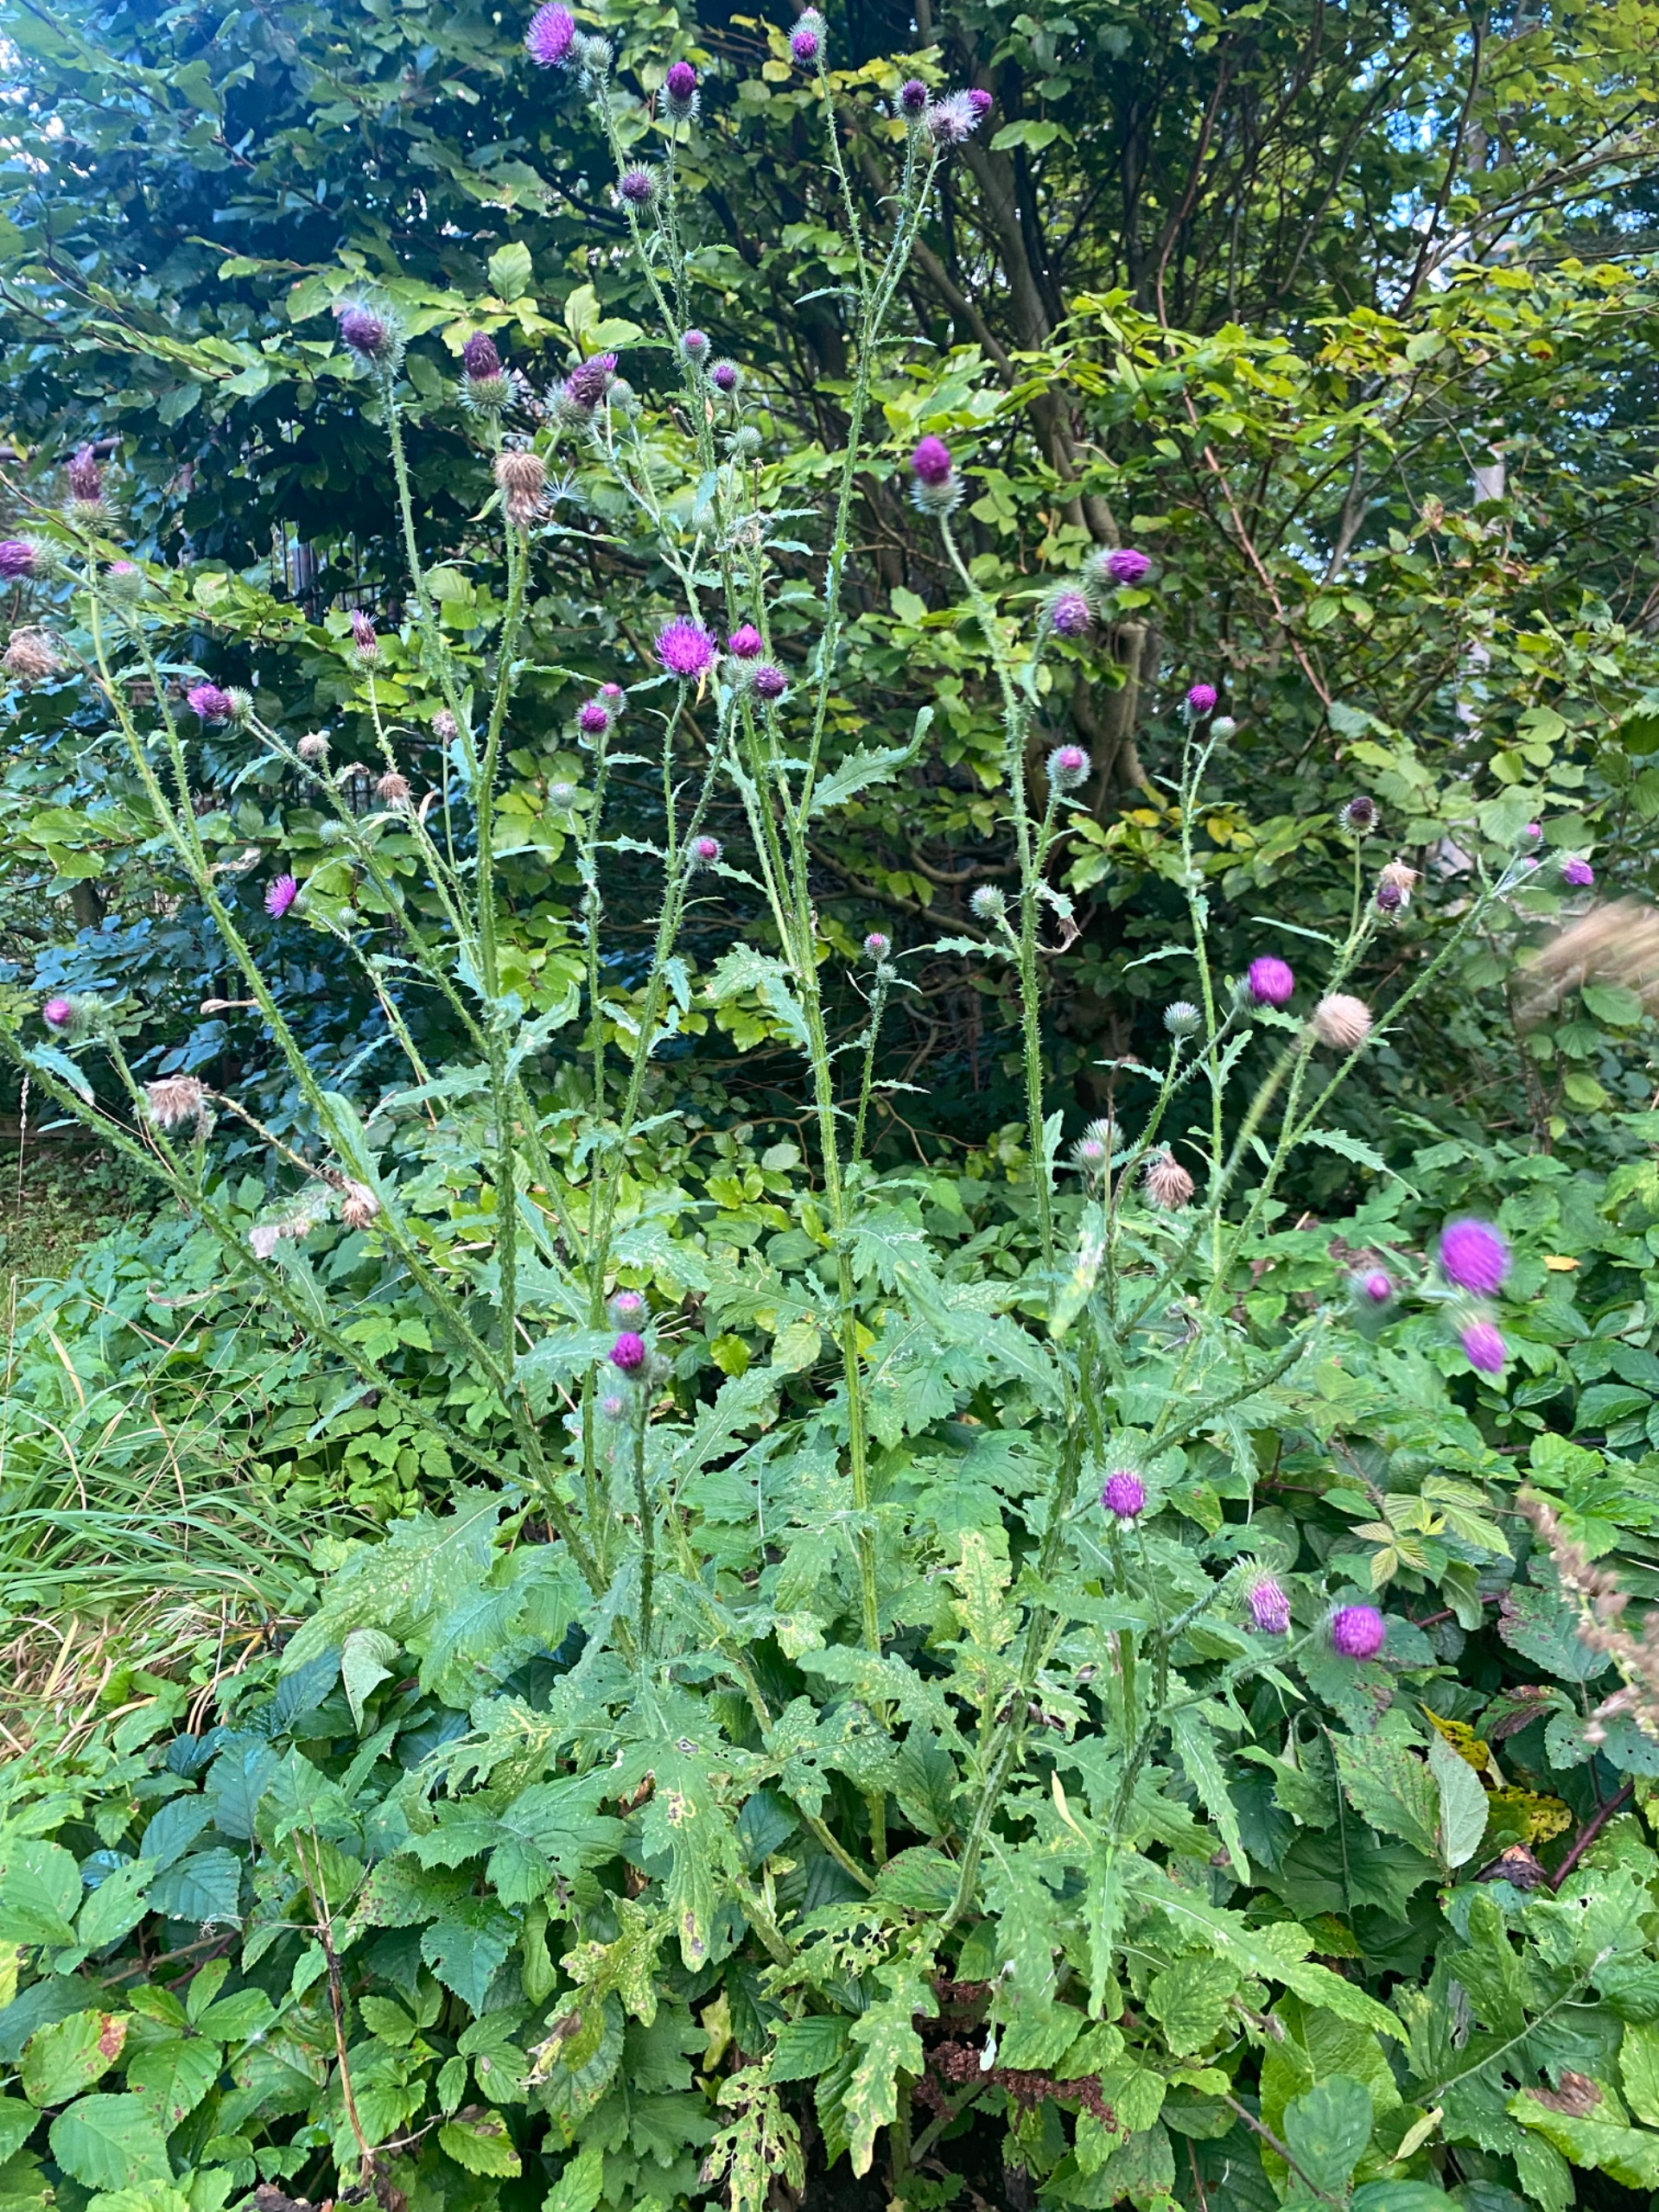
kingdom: Plantae
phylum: Tracheophyta
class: Magnoliopsida
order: Asterales
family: Asteraceae
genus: Carduus
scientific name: Carduus crispus
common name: Kruset tidsel
